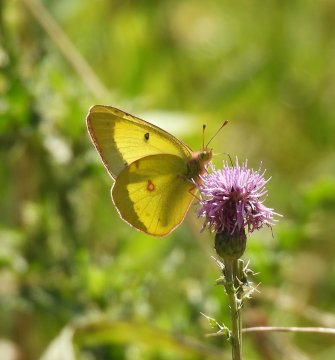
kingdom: Animalia
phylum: Arthropoda
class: Insecta
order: Lepidoptera
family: Pieridae
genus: Colias
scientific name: Colias philodice
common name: Clouded Sulphur
